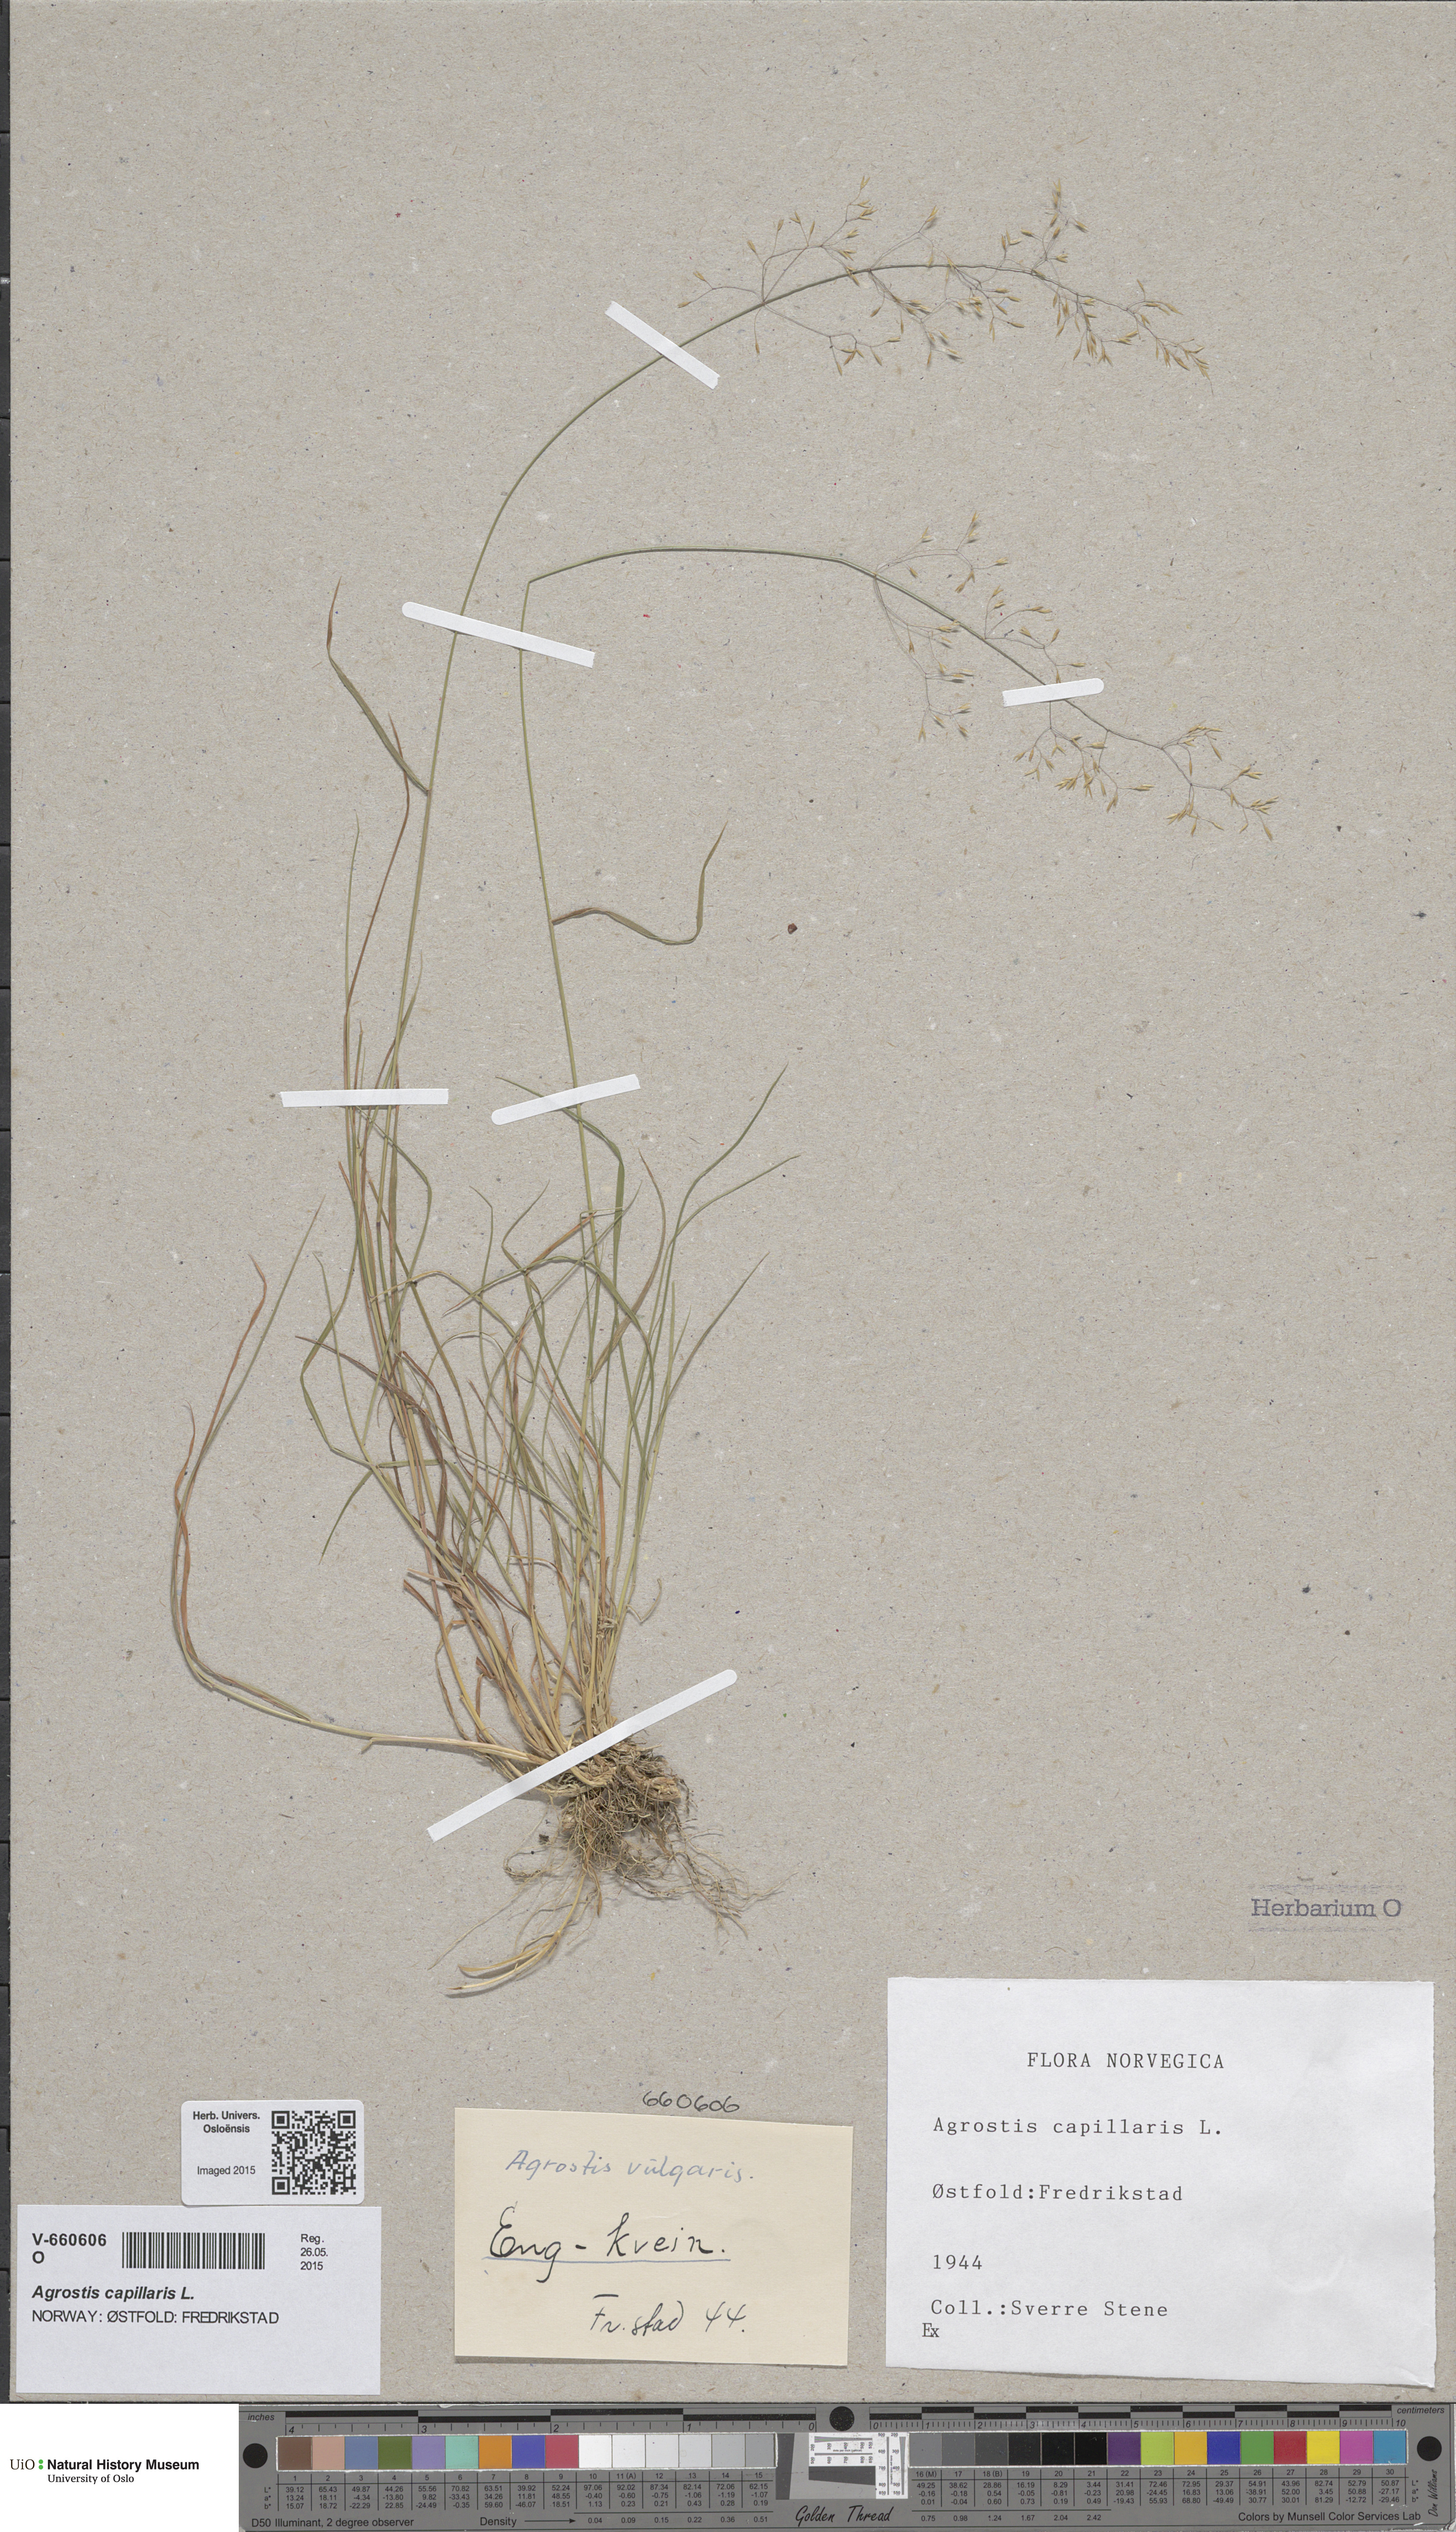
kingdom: Plantae
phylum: Tracheophyta
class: Liliopsida
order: Poales
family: Poaceae
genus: Agrostis
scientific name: Agrostis capillaris
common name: Colonial bentgrass
